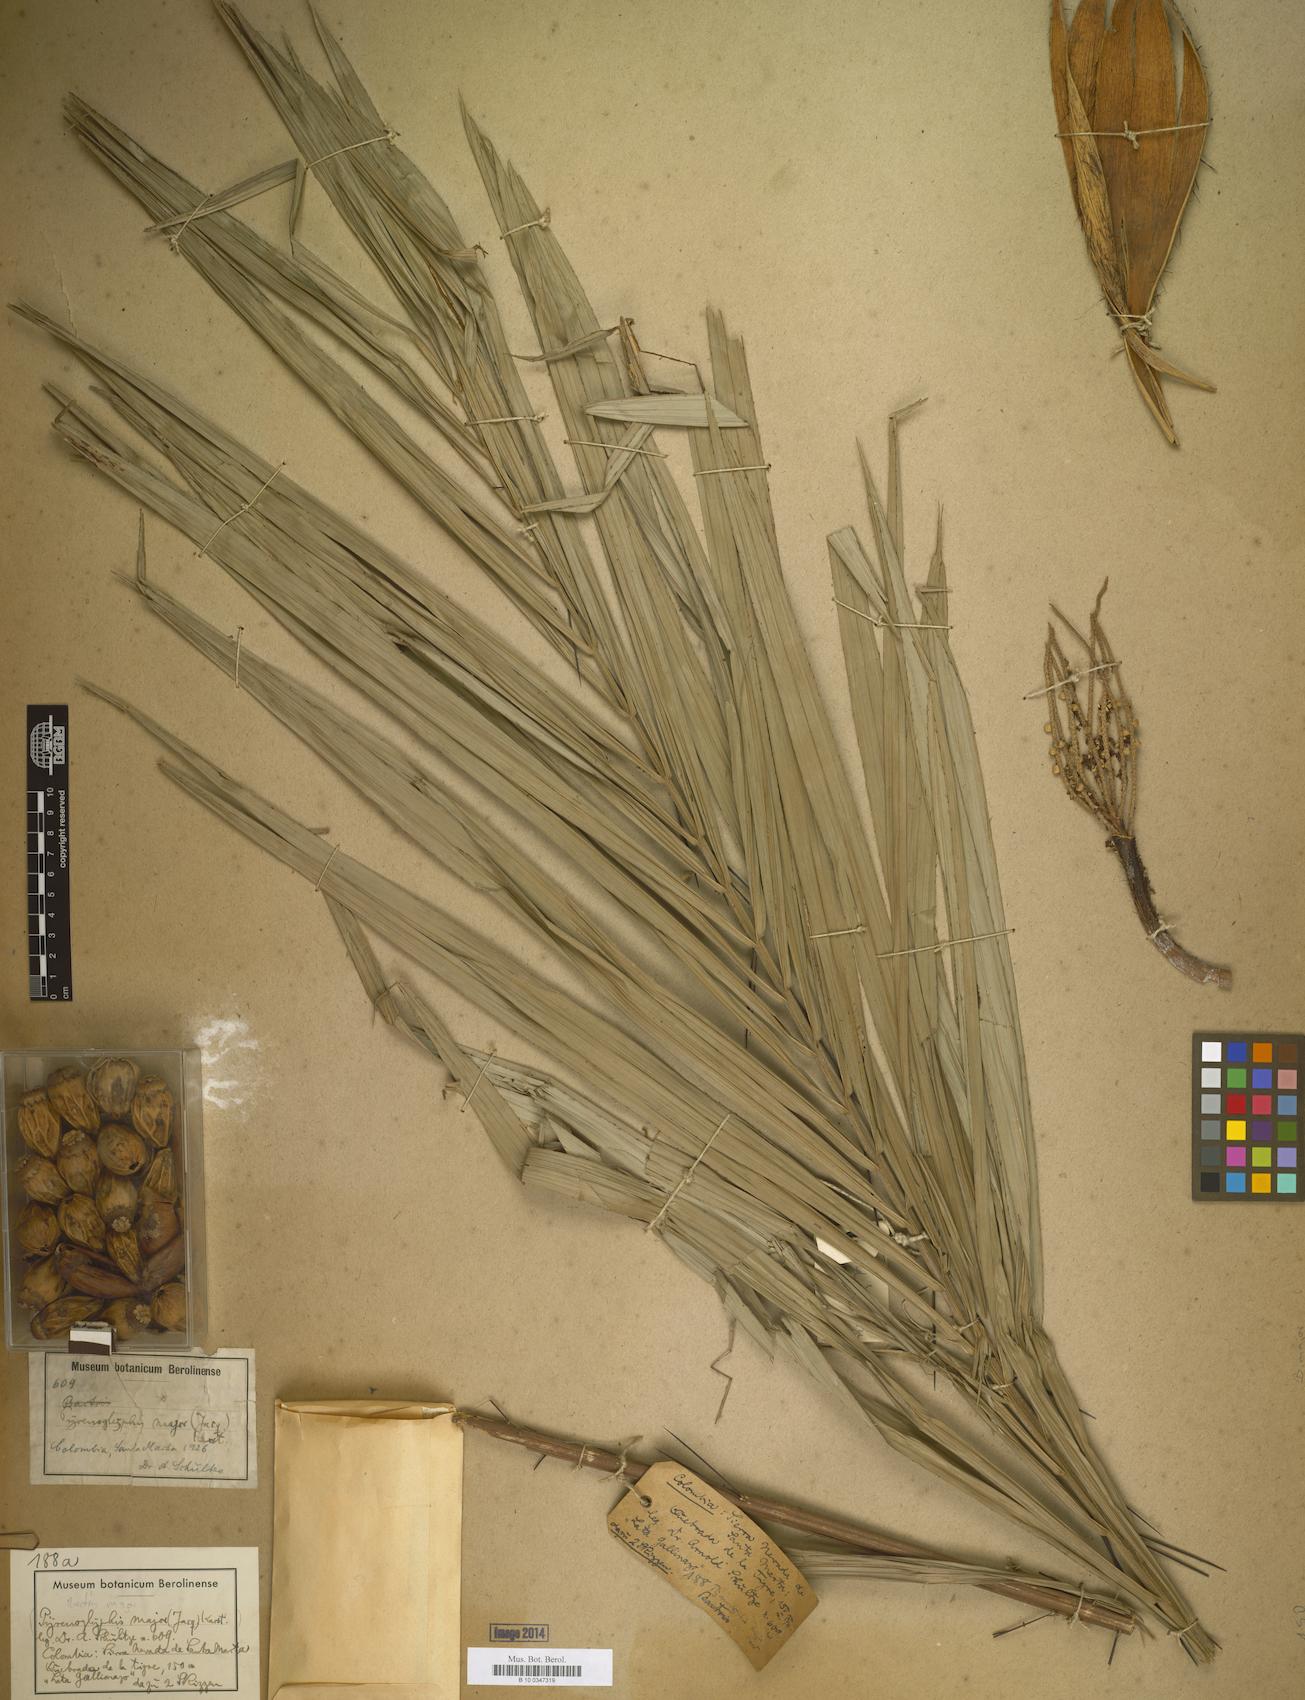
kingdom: Plantae
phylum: Tracheophyta
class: Liliopsida
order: Arecales
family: Arecaceae
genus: Bactris
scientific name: Bactris major
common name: Beach palm
